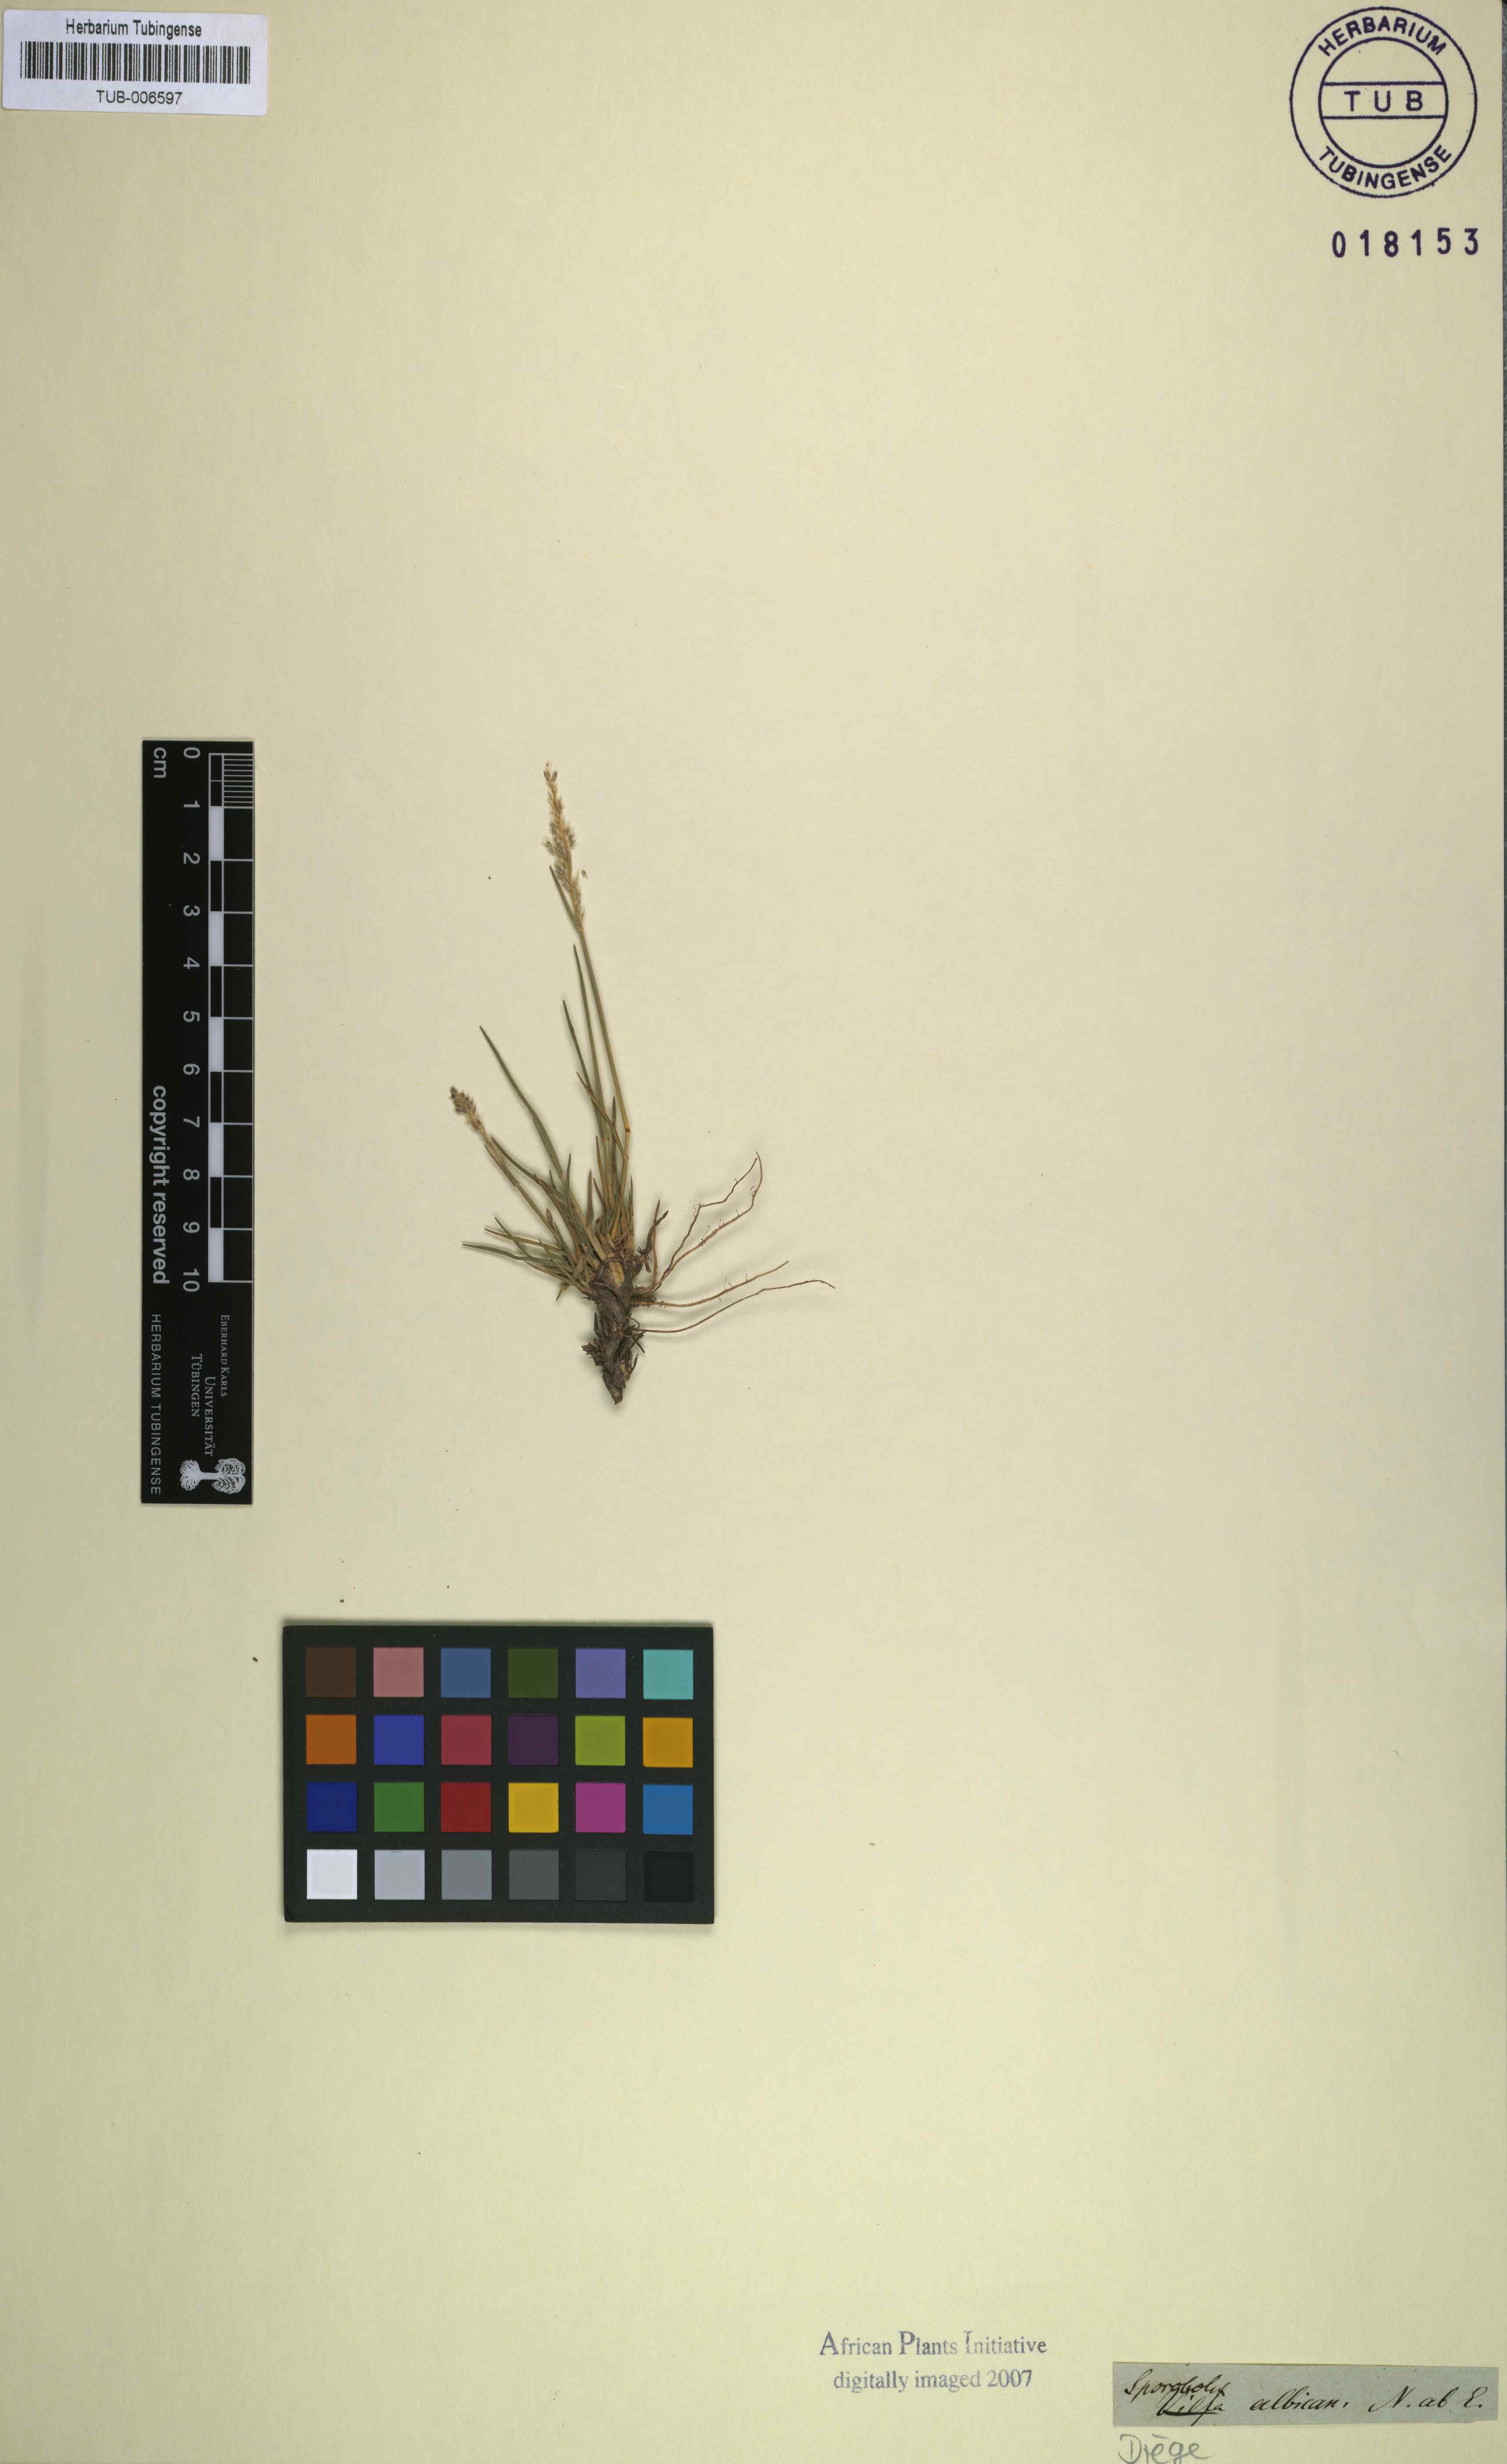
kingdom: Plantae
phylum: Tracheophyta
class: Liliopsida
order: Poales
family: Poaceae
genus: Sporobolus
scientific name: Sporobolus albicans
